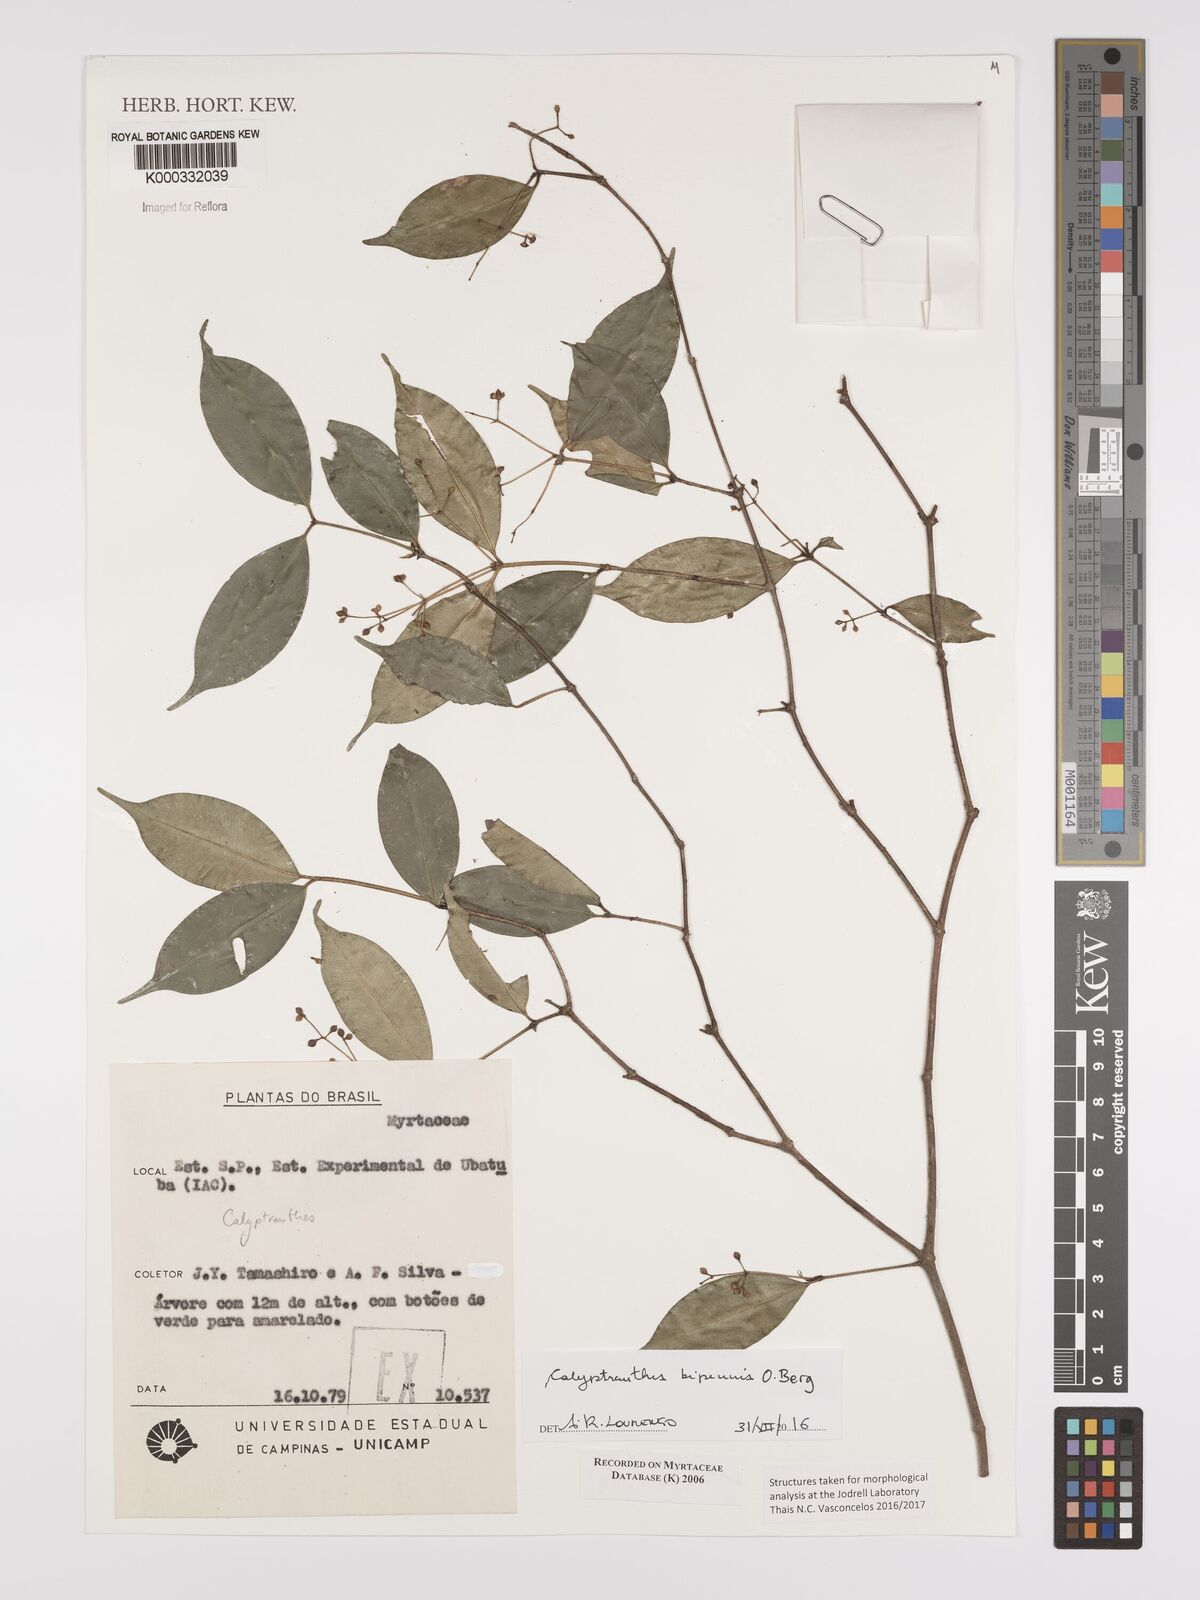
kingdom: Plantae
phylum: Tracheophyta
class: Magnoliopsida
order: Myrtales
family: Myrtaceae
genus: Calyptranthes
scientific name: Calyptranthes
